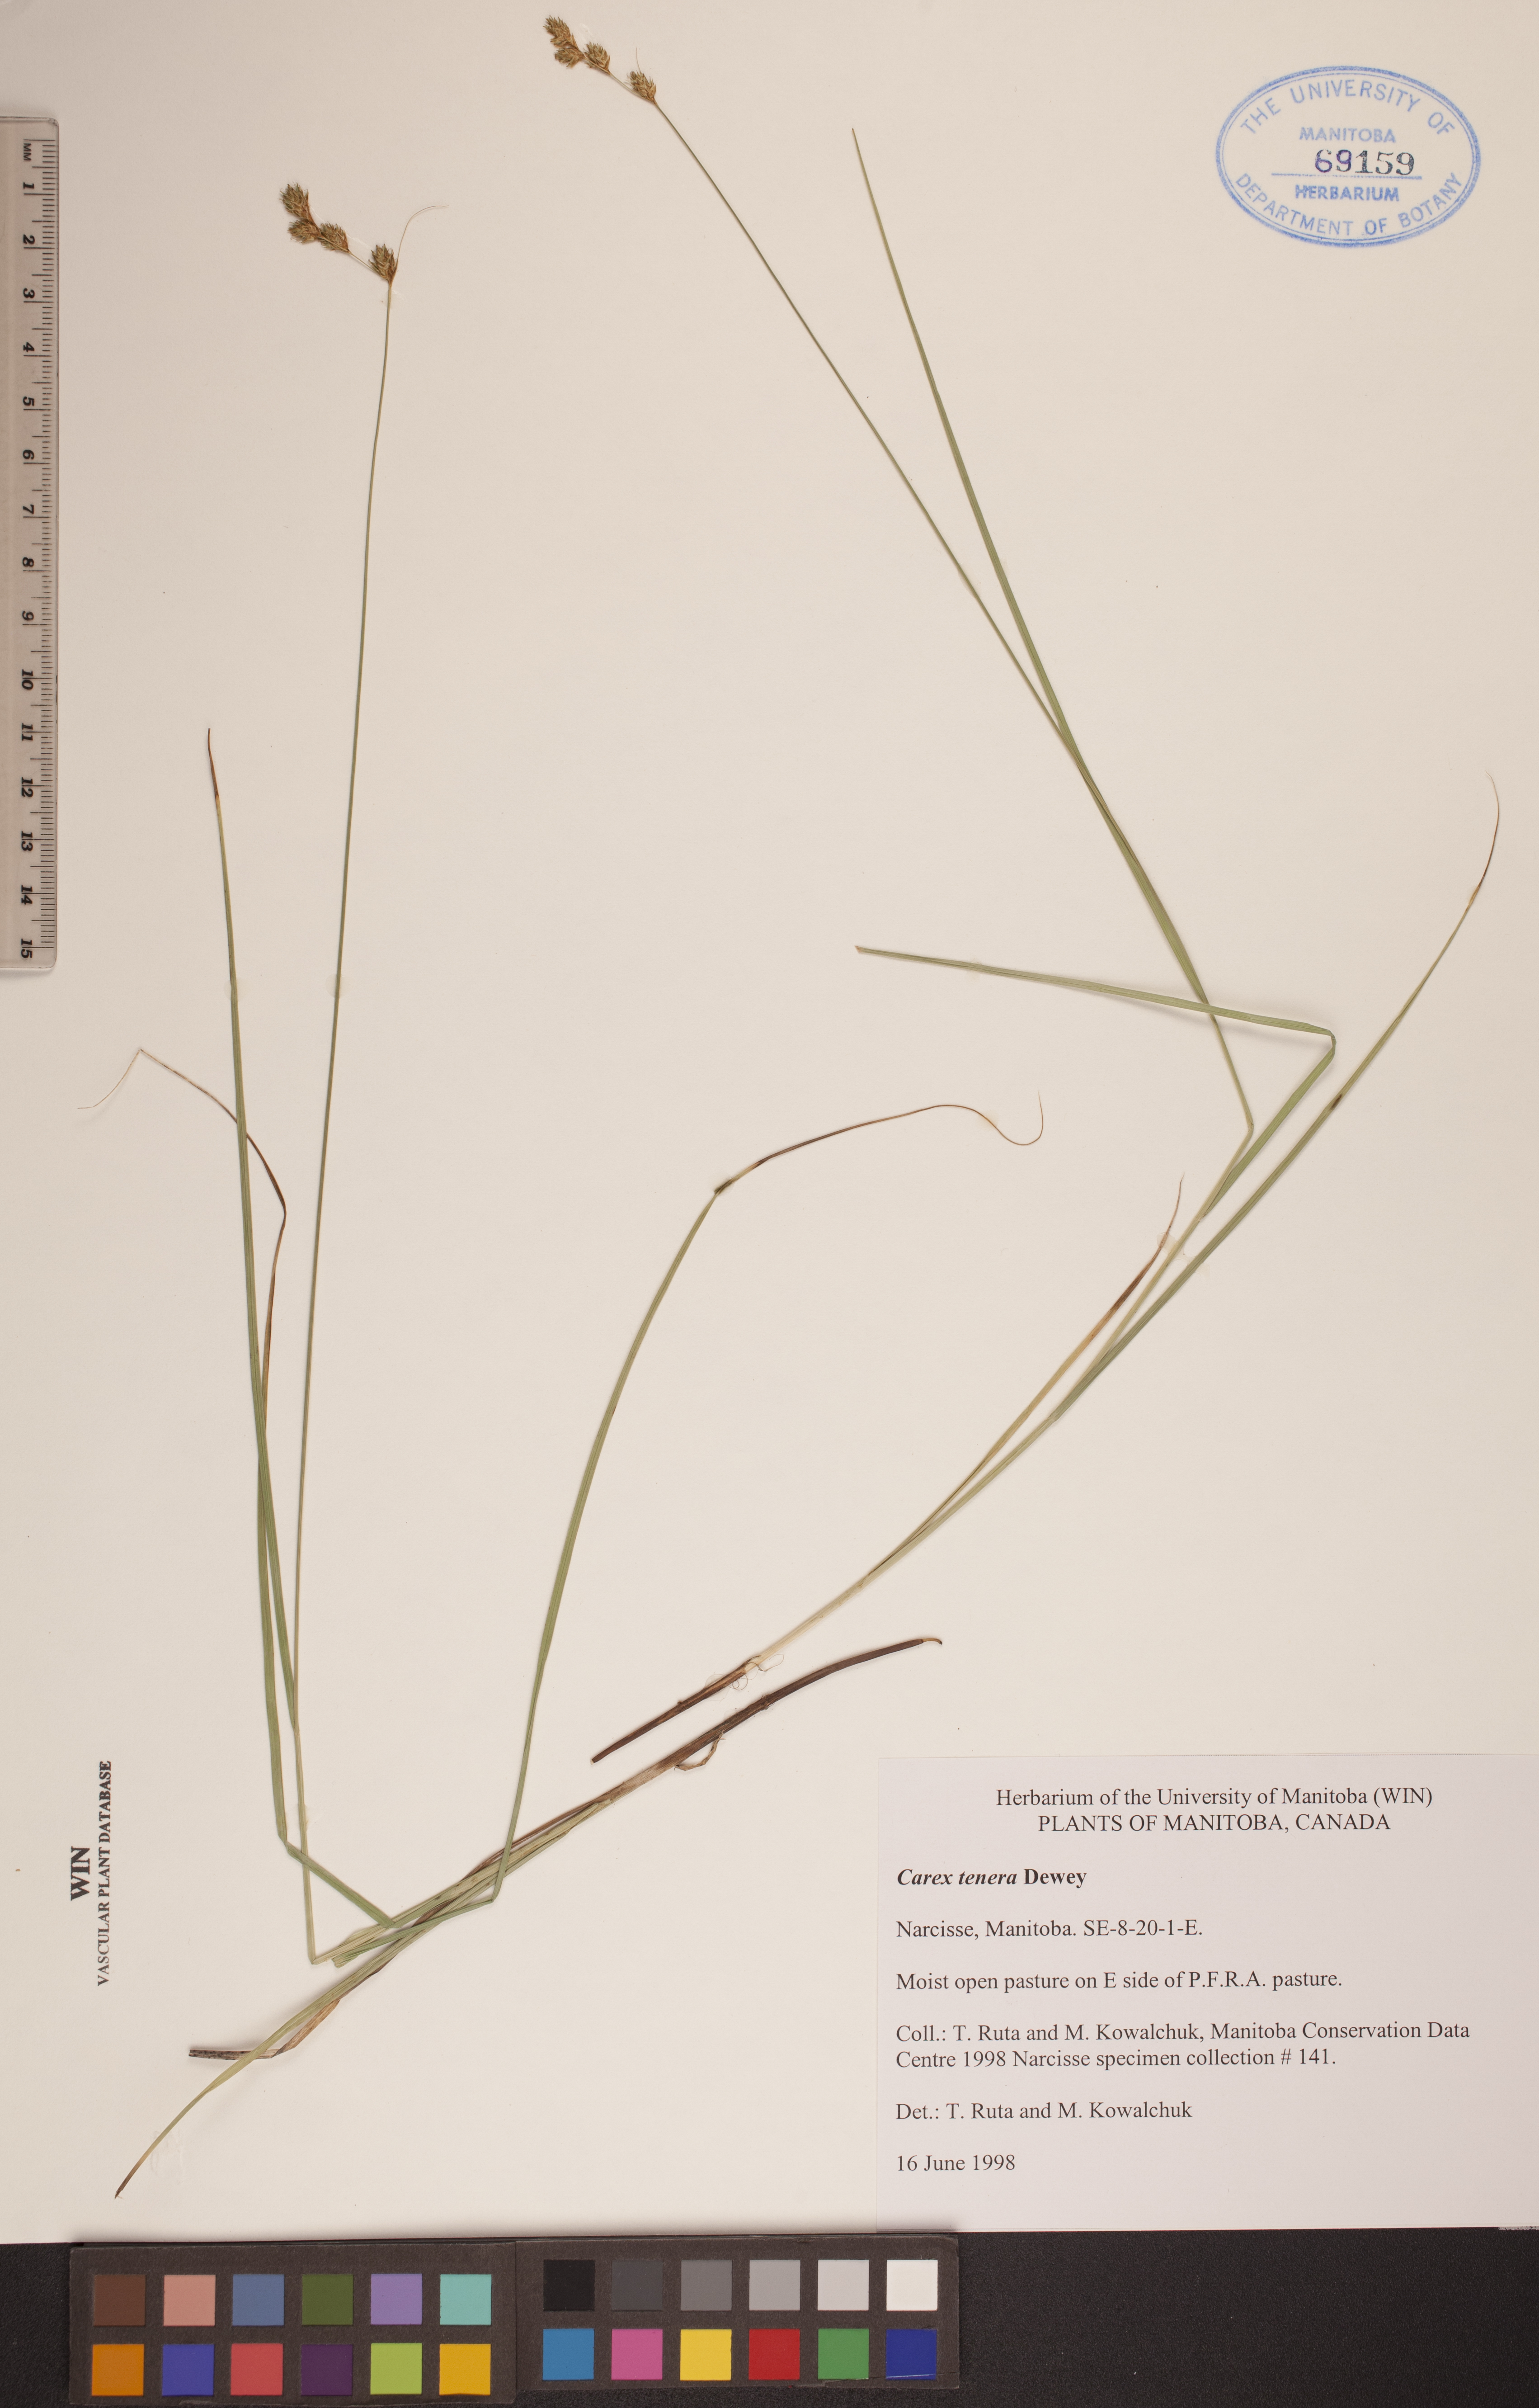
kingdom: Plantae
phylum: Tracheophyta
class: Liliopsida
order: Poales
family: Cyperaceae
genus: Carex
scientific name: Carex tenera
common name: Broad-fruited sedge
